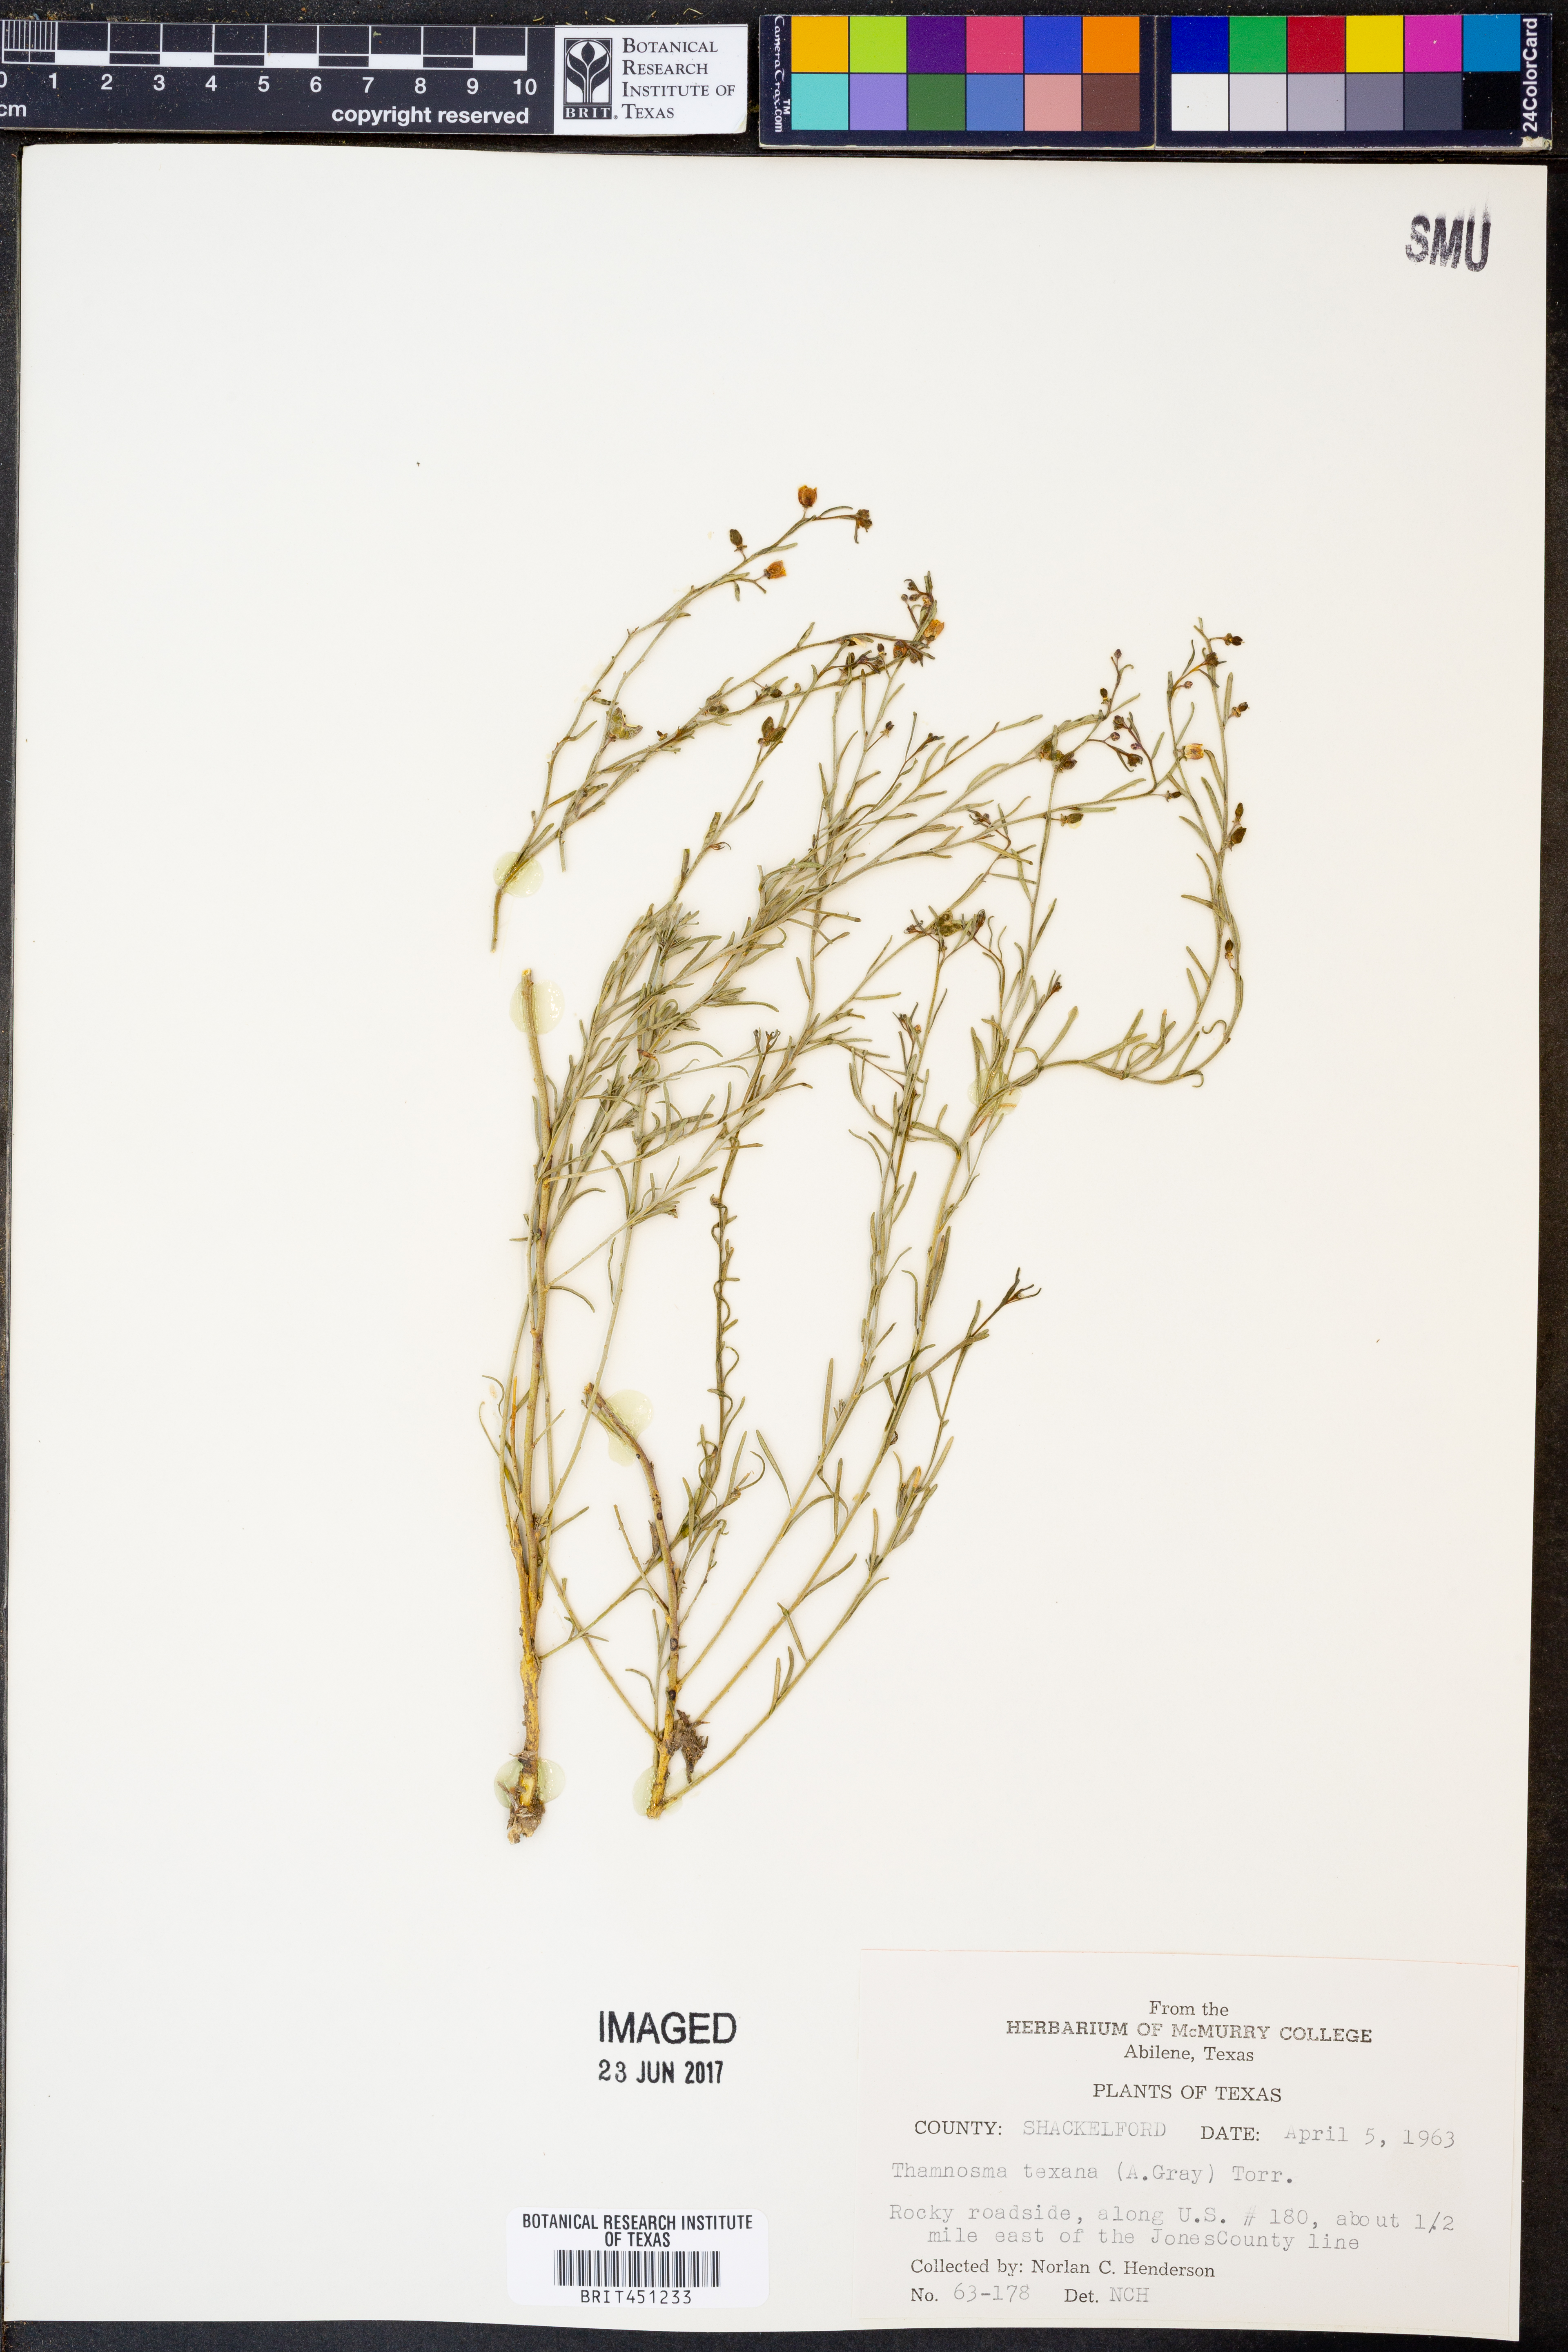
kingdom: Plantae
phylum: Tracheophyta
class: Magnoliopsida
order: Sapindales
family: Rutaceae
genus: Thamnosma
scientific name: Thamnosma texana
